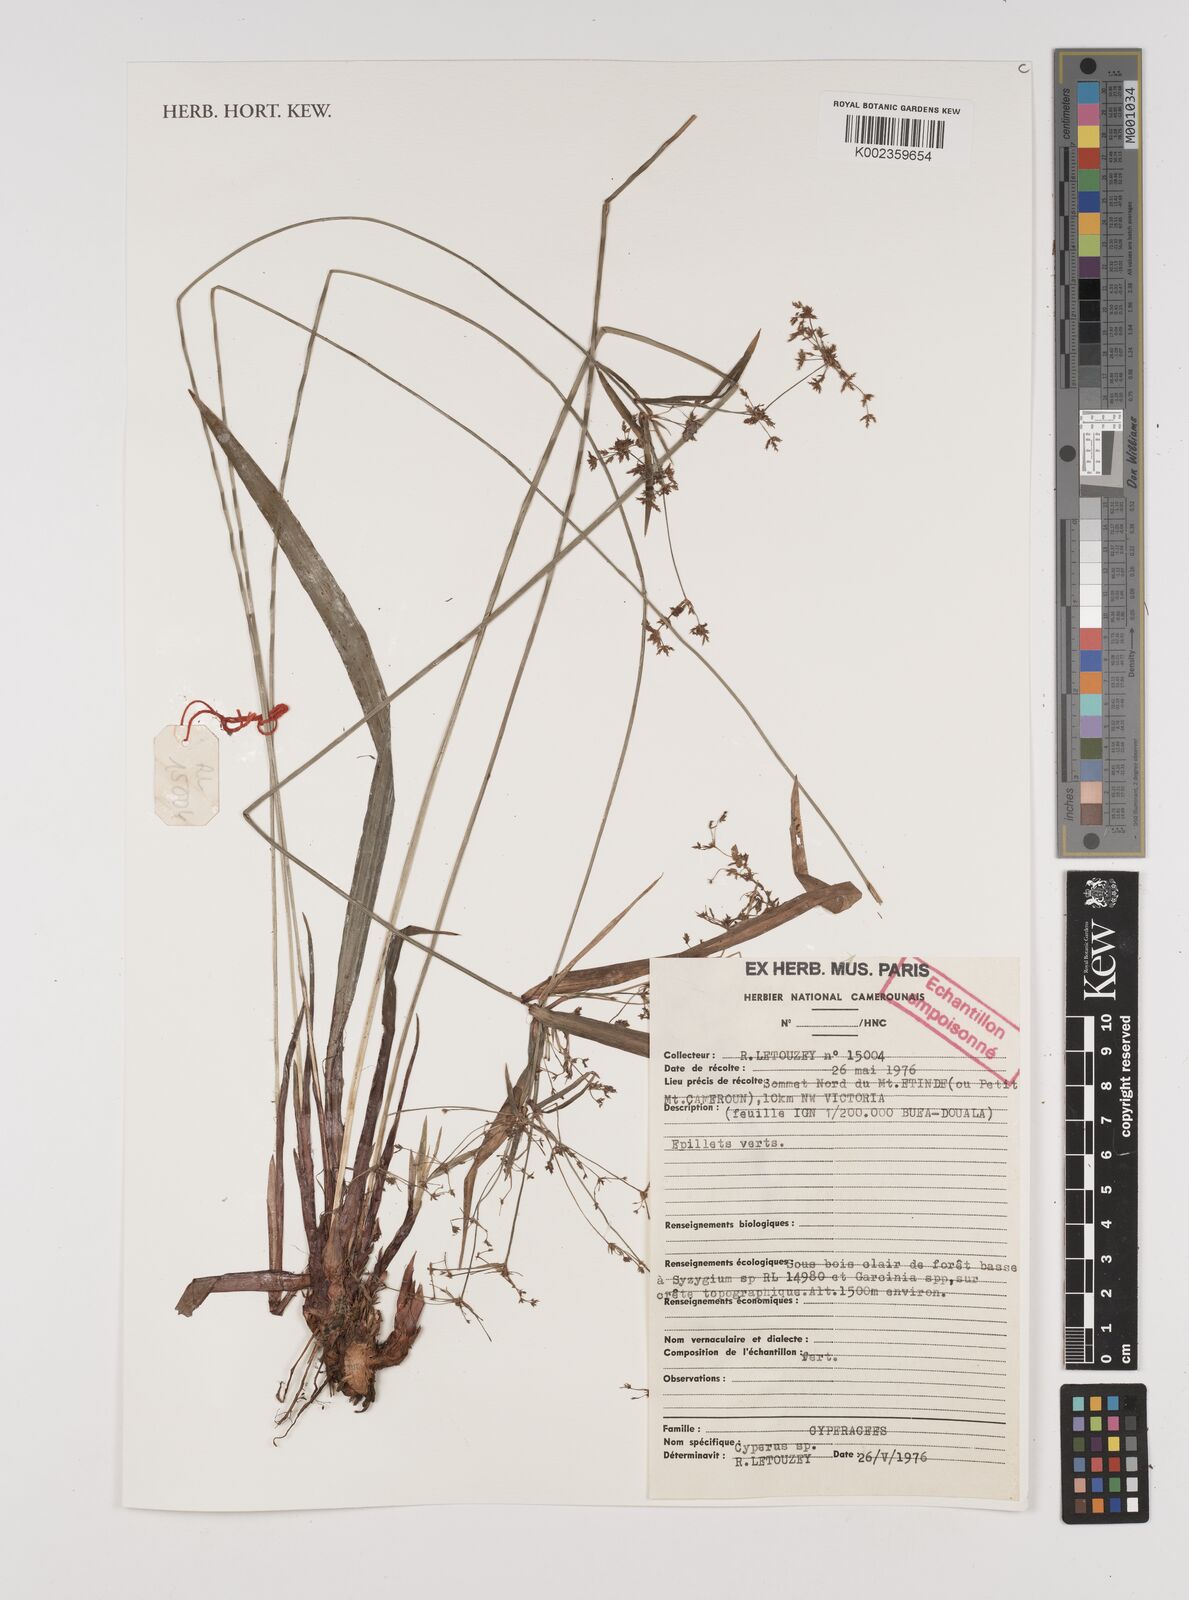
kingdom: Plantae
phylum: Tracheophyta
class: Liliopsida
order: Poales
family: Cyperaceae
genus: Cyperus
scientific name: Cyperus
